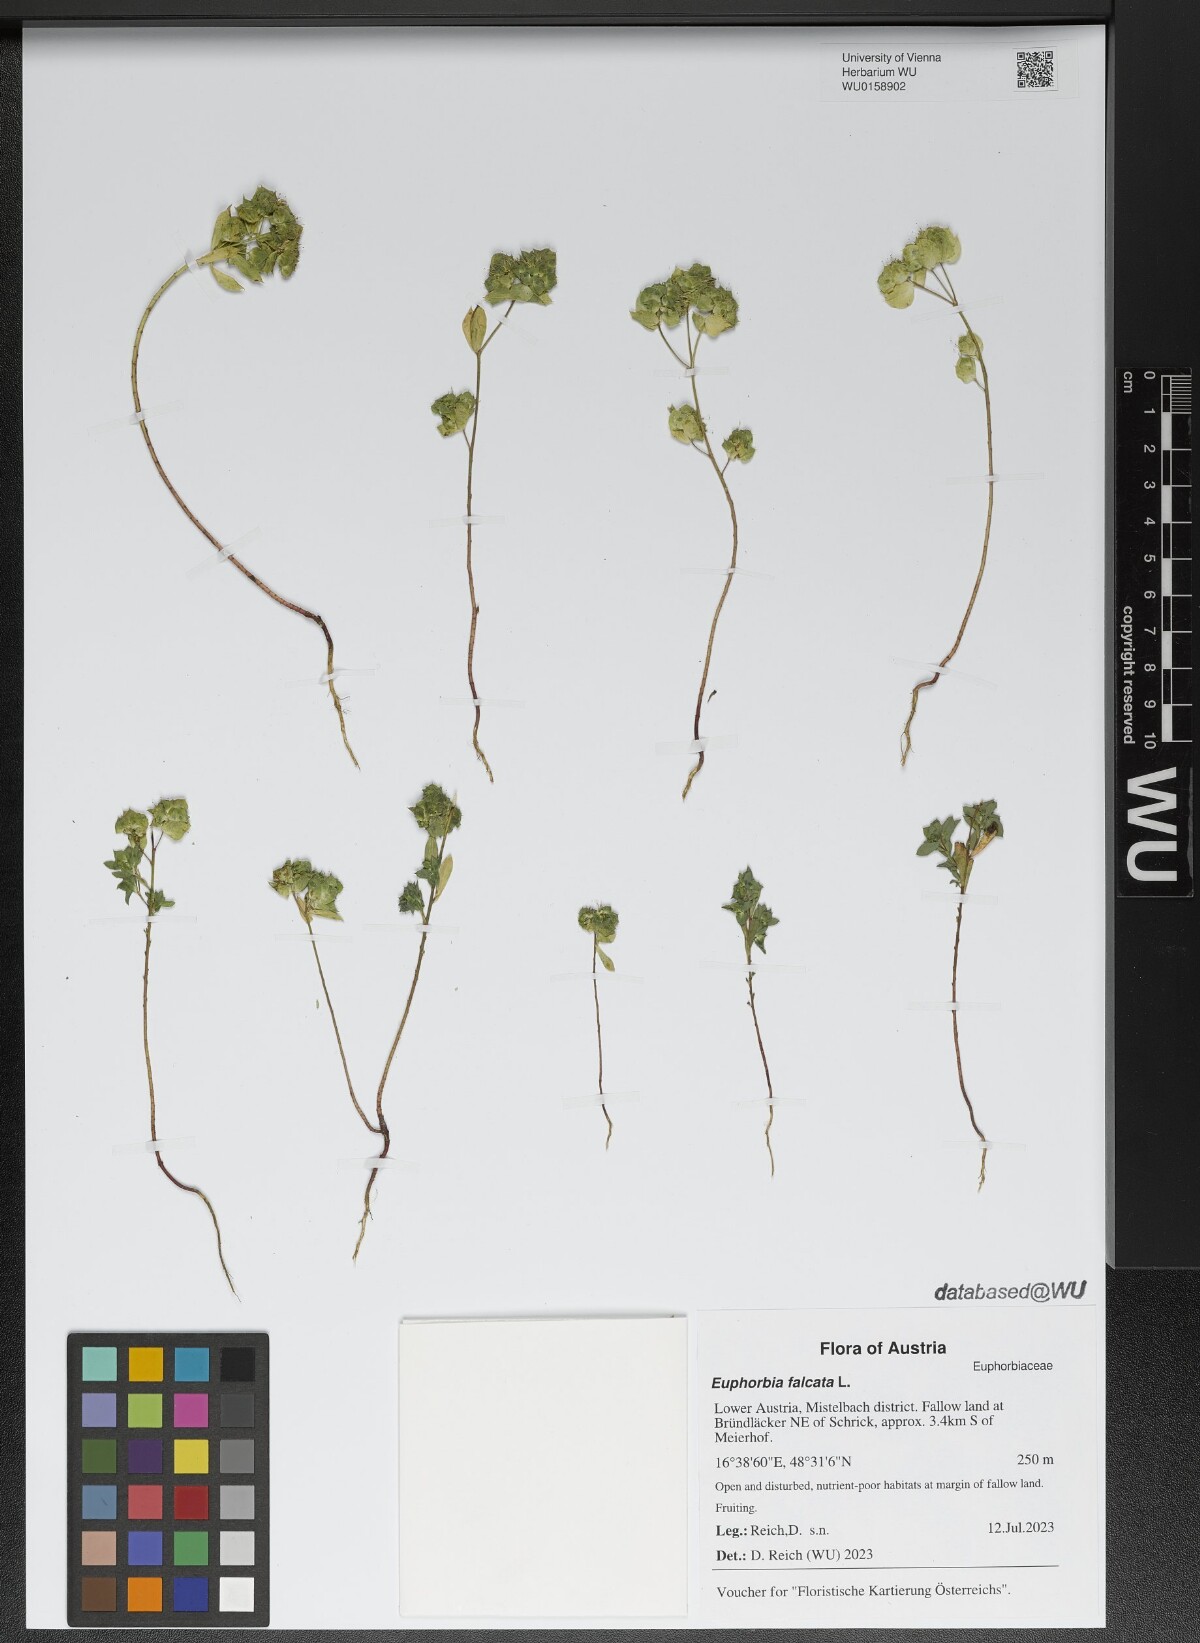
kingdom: Plantae
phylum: Tracheophyta
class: Magnoliopsida
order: Malpighiales
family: Euphorbiaceae
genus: Euphorbia
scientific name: Euphorbia falcata
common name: Sickle spurge
